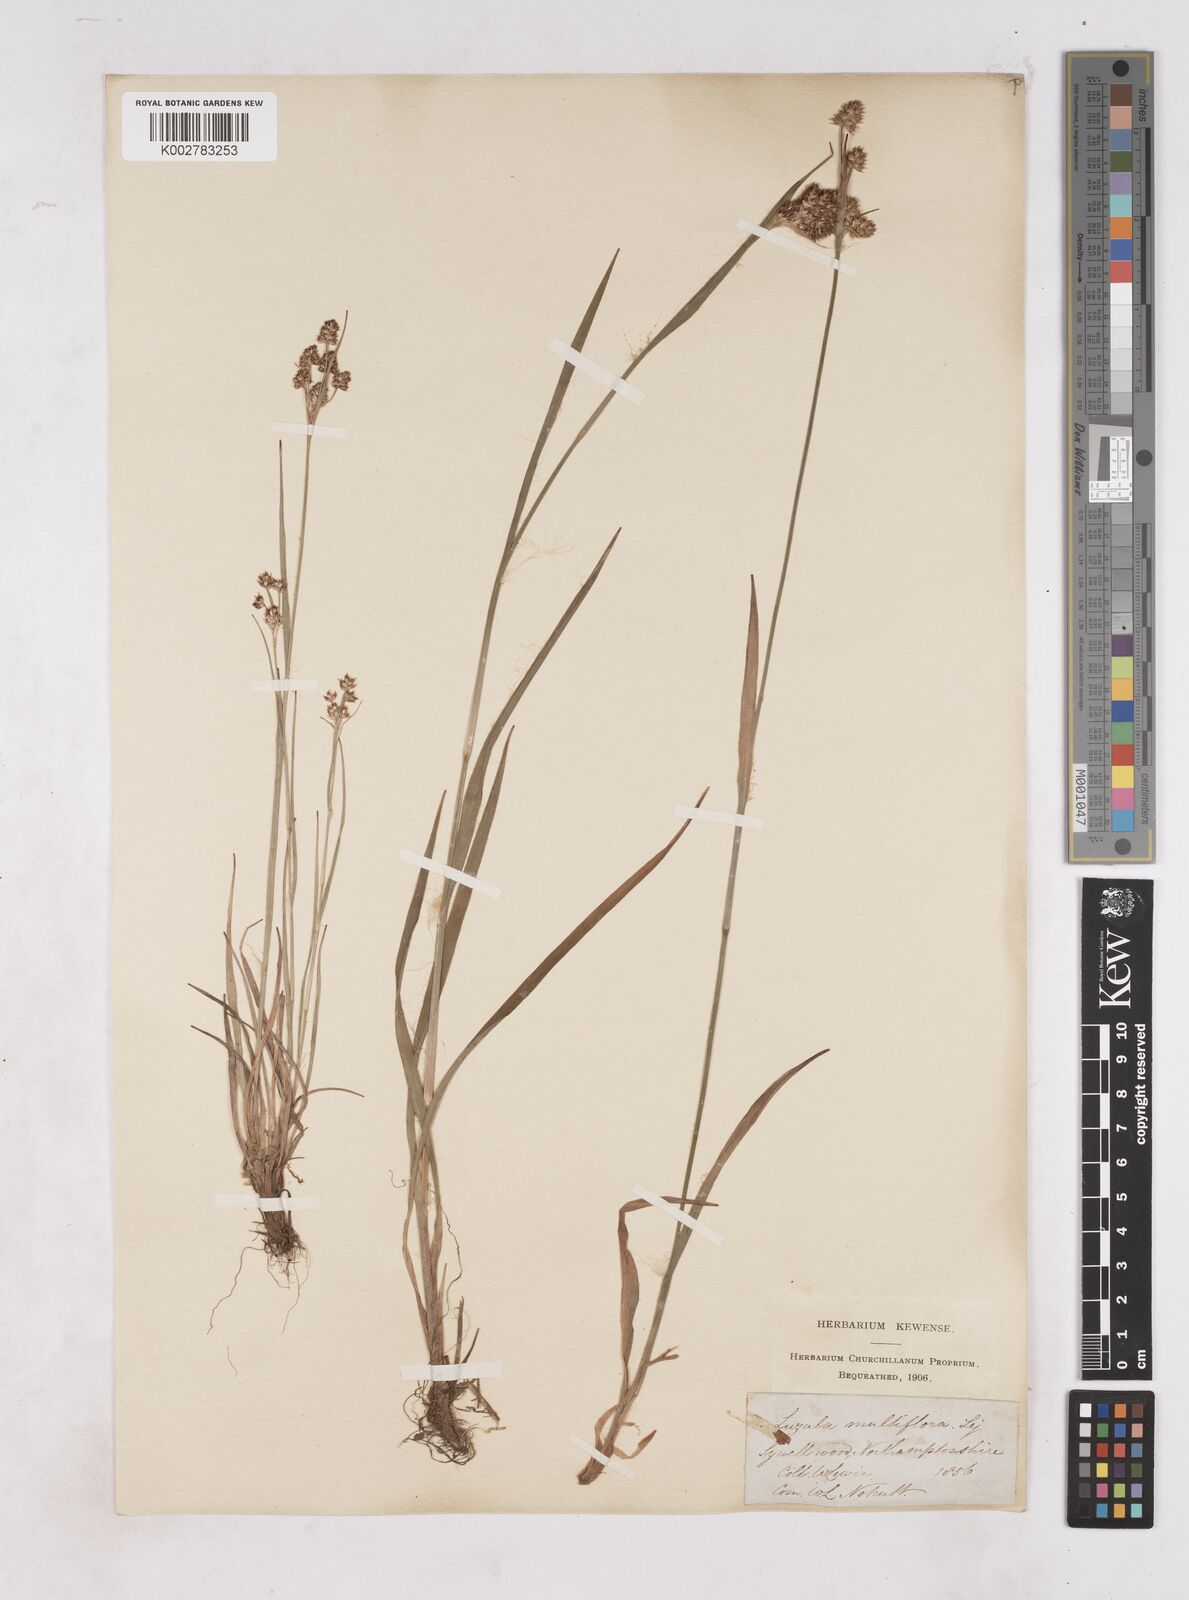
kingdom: Plantae
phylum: Tracheophyta
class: Liliopsida
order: Poales
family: Juncaceae
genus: Luzula
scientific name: Luzula multiflora
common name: Heath wood-rush
